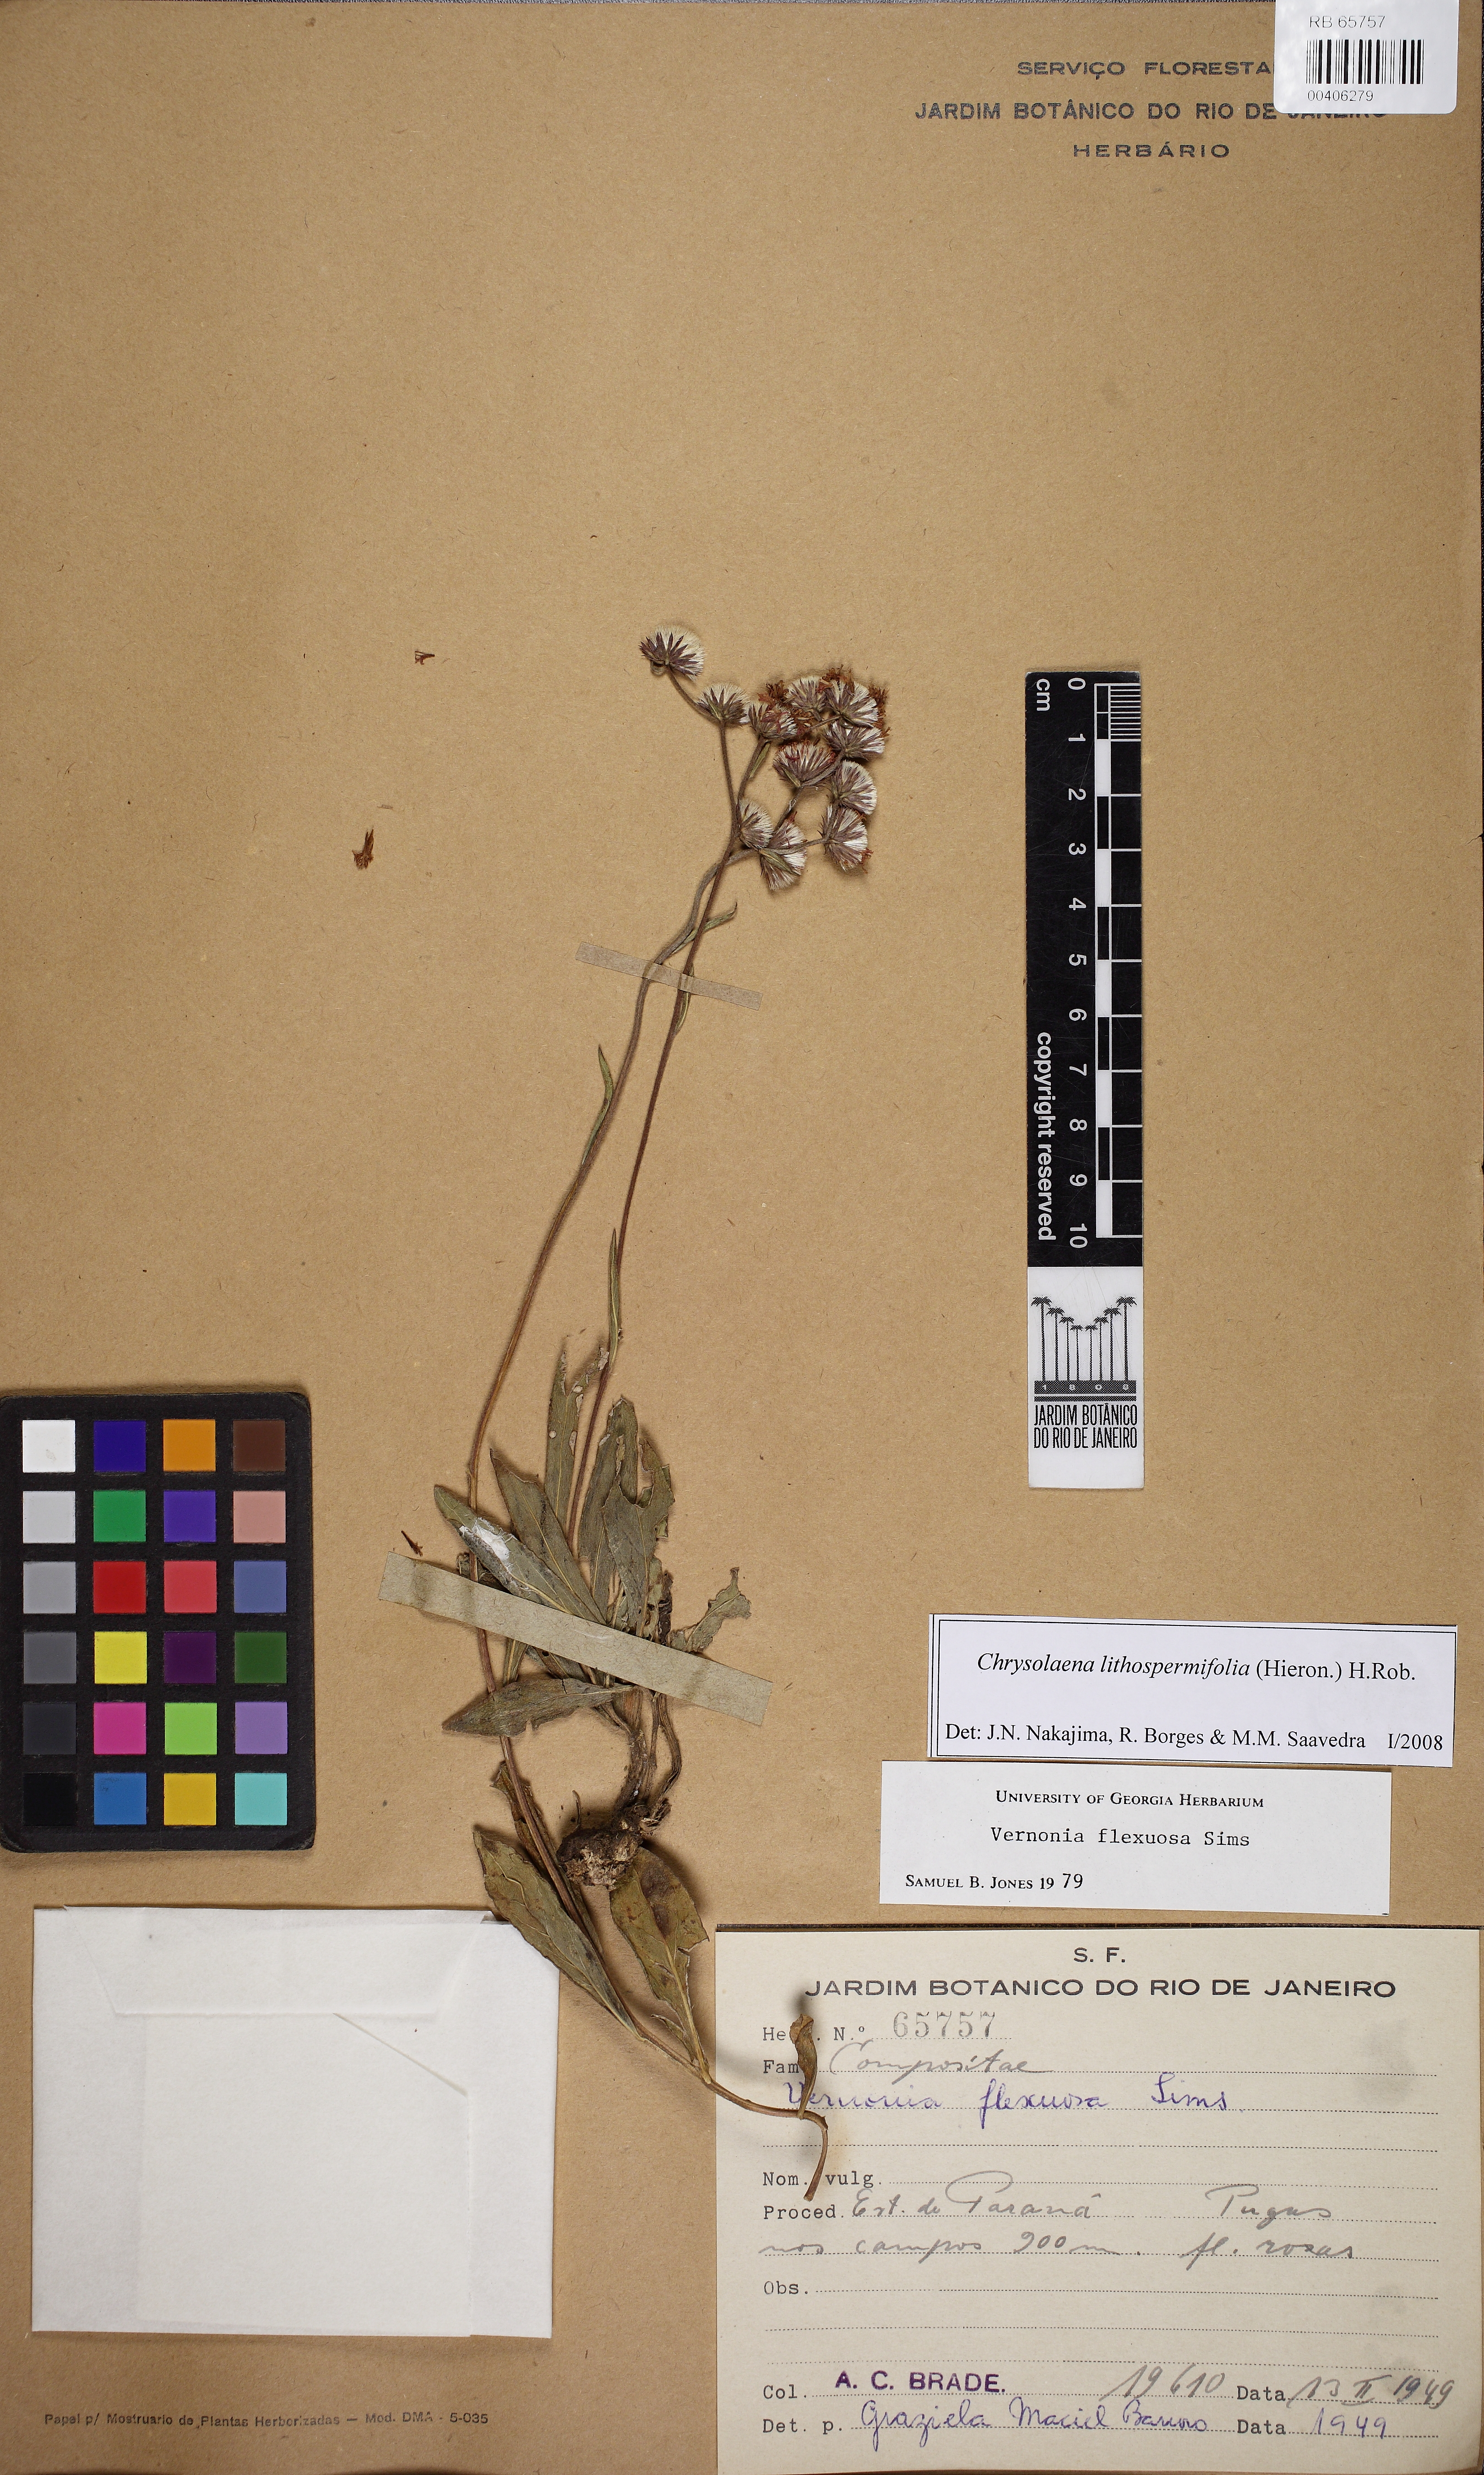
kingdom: Plantae
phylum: Tracheophyta
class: Magnoliopsida
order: Asterales
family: Asteraceae
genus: Chrysolaena
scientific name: Chrysolaena lithospermifolia
